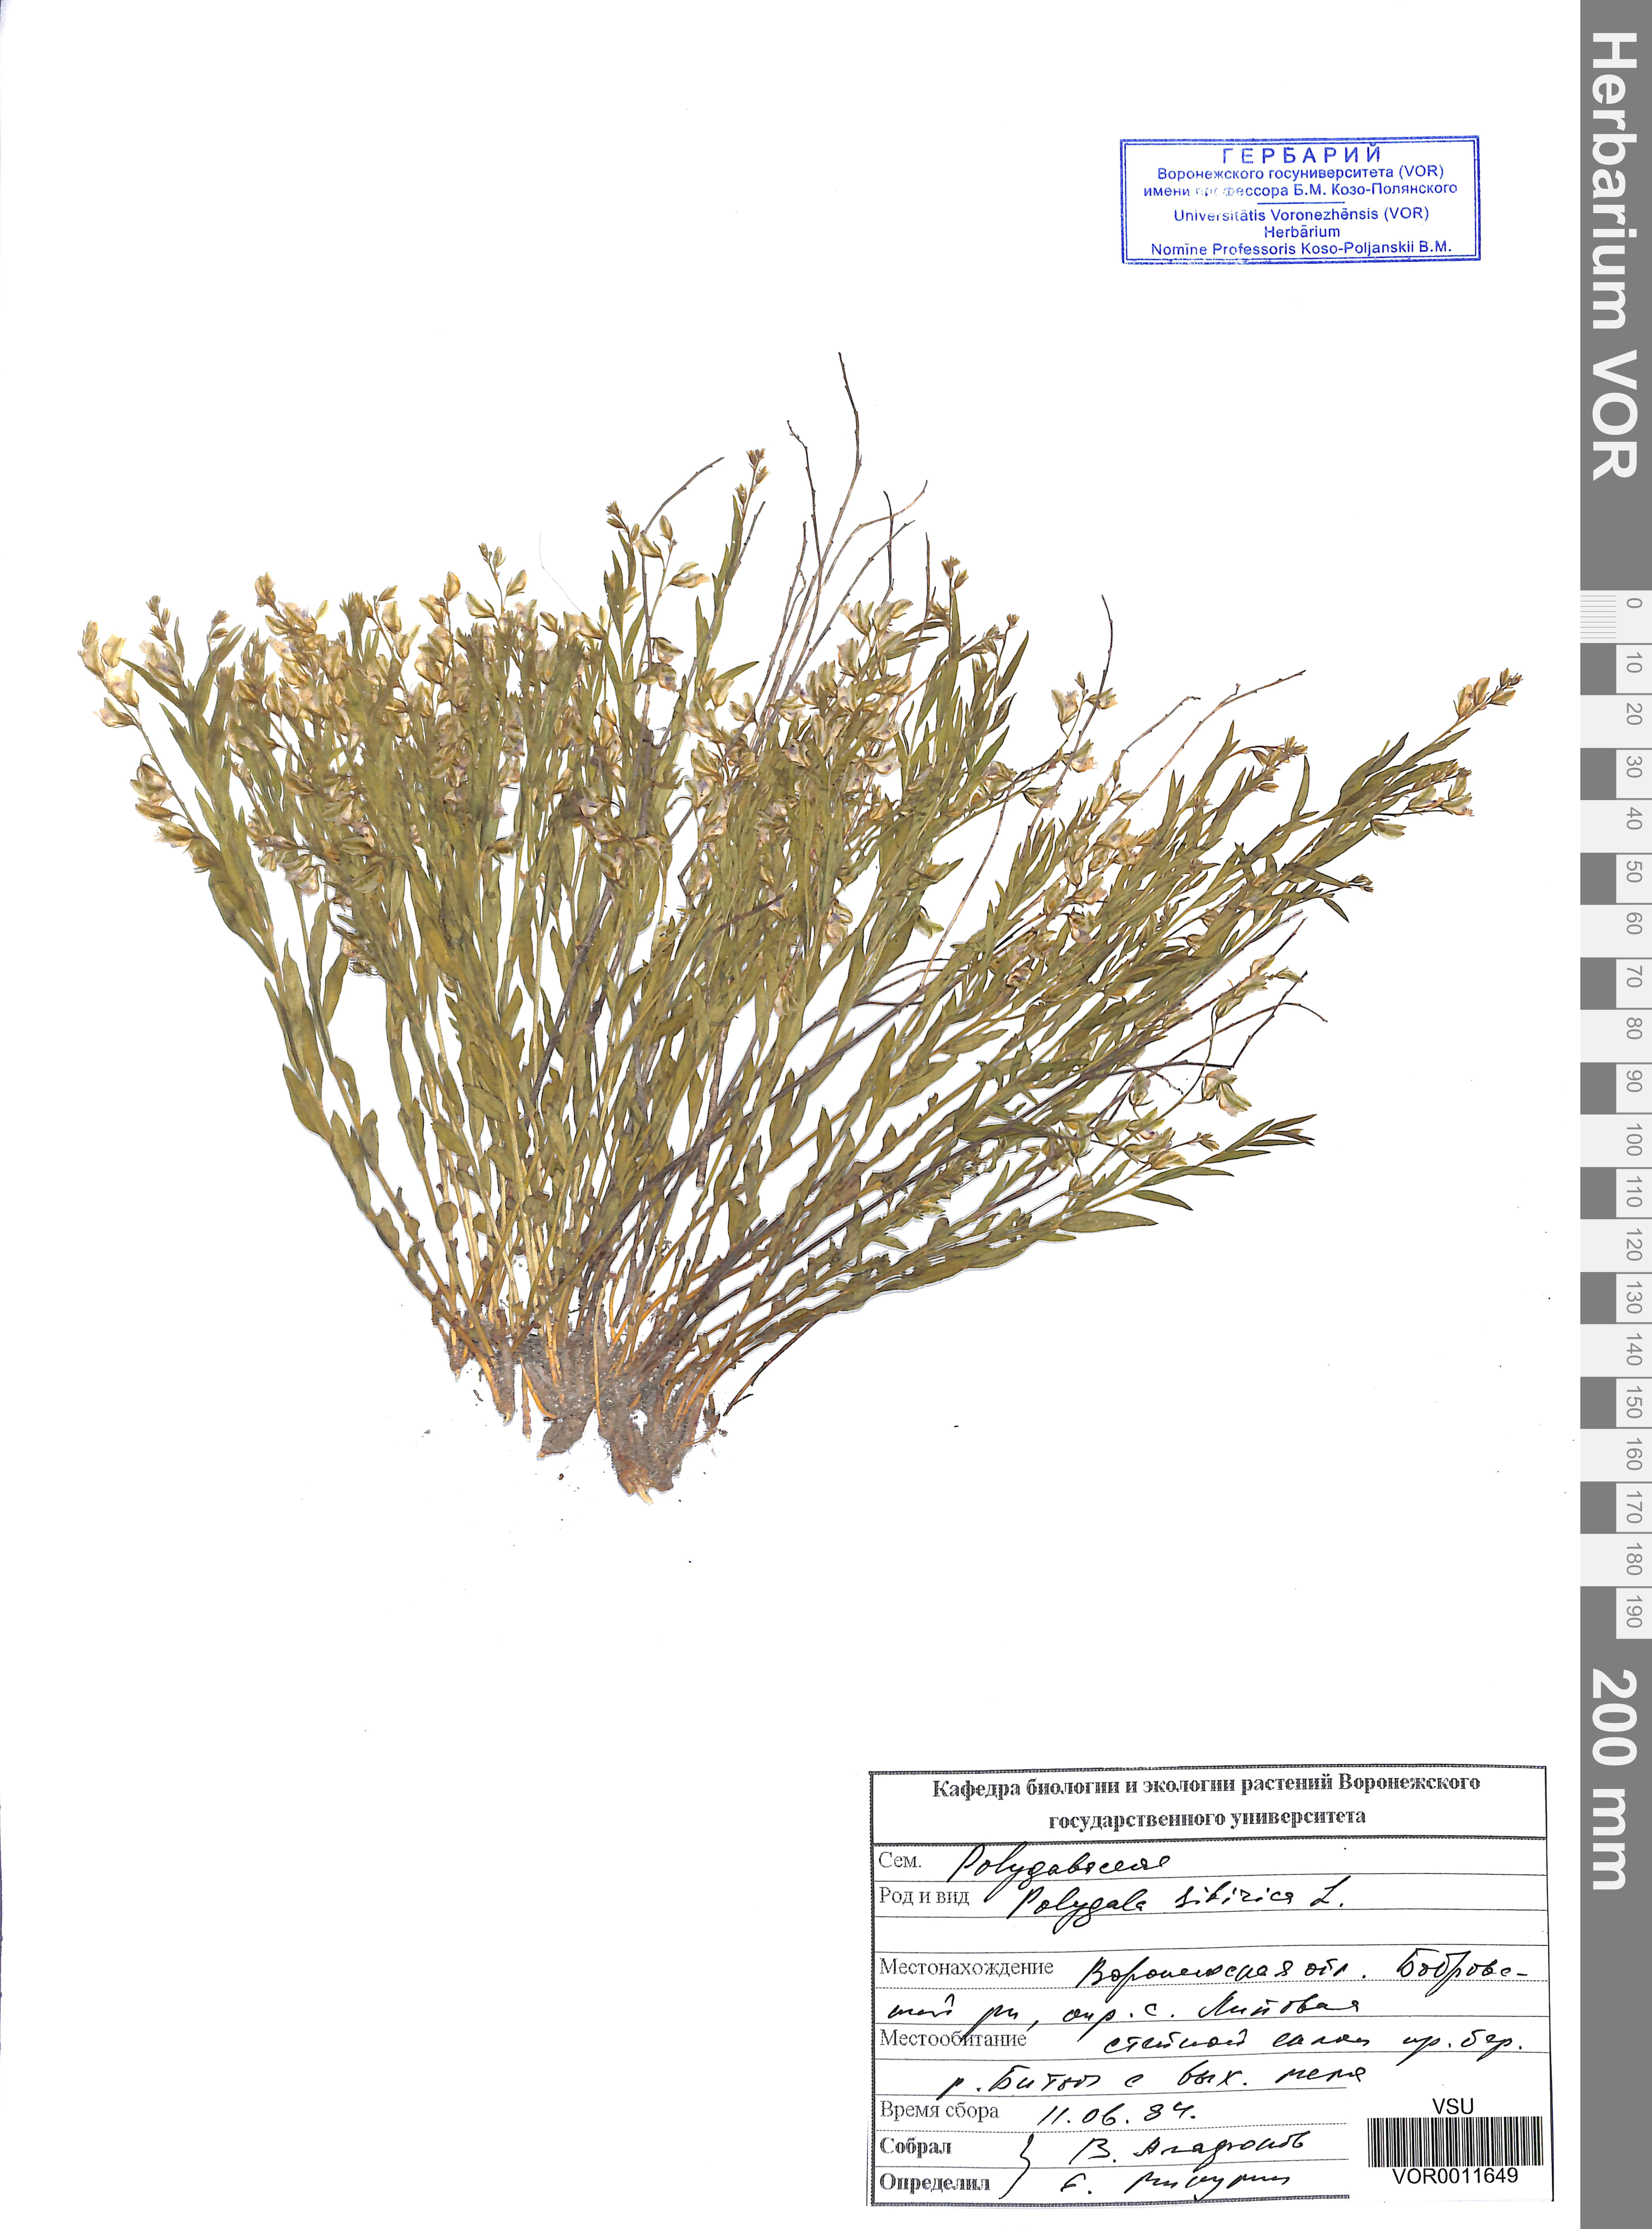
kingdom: Plantae
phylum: Tracheophyta
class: Magnoliopsida
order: Fabales
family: Polygalaceae
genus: Polygala
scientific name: Polygala sibirica
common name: Siberian polygala
